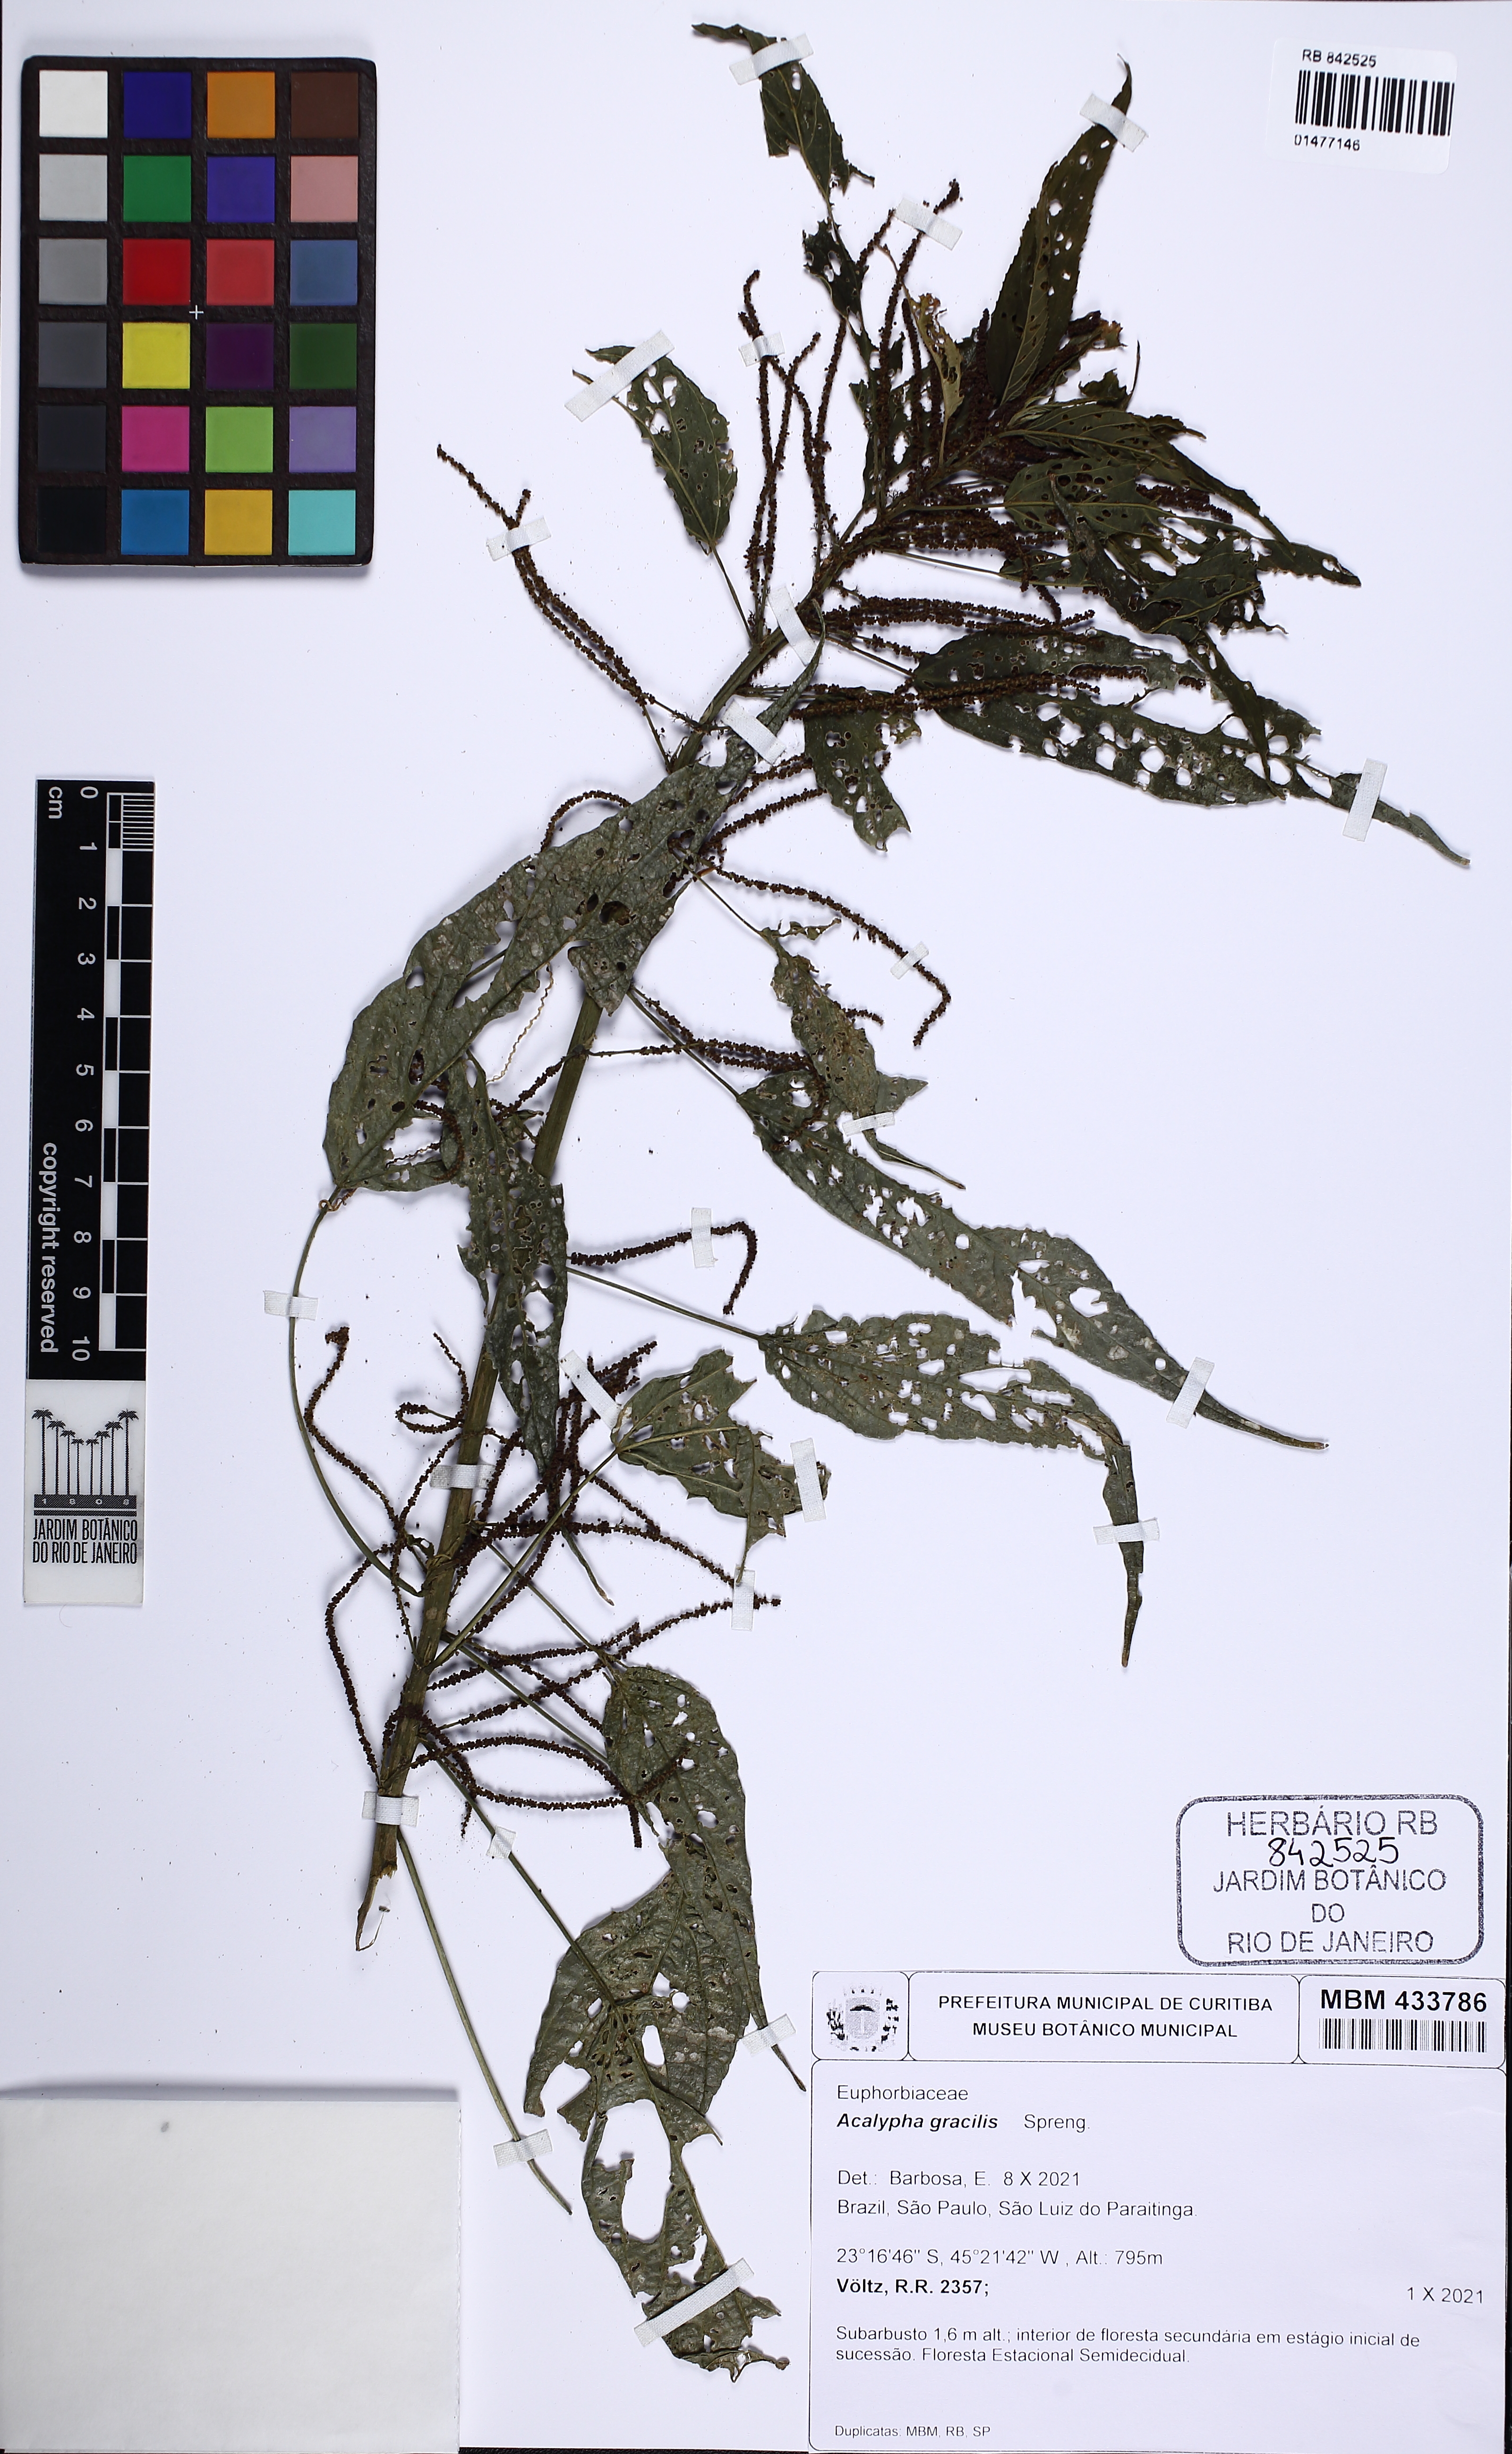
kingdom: Plantae
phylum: Tracheophyta
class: Magnoliopsida
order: Malpighiales
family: Euphorbiaceae
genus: Acalypha
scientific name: Acalypha gracilis
